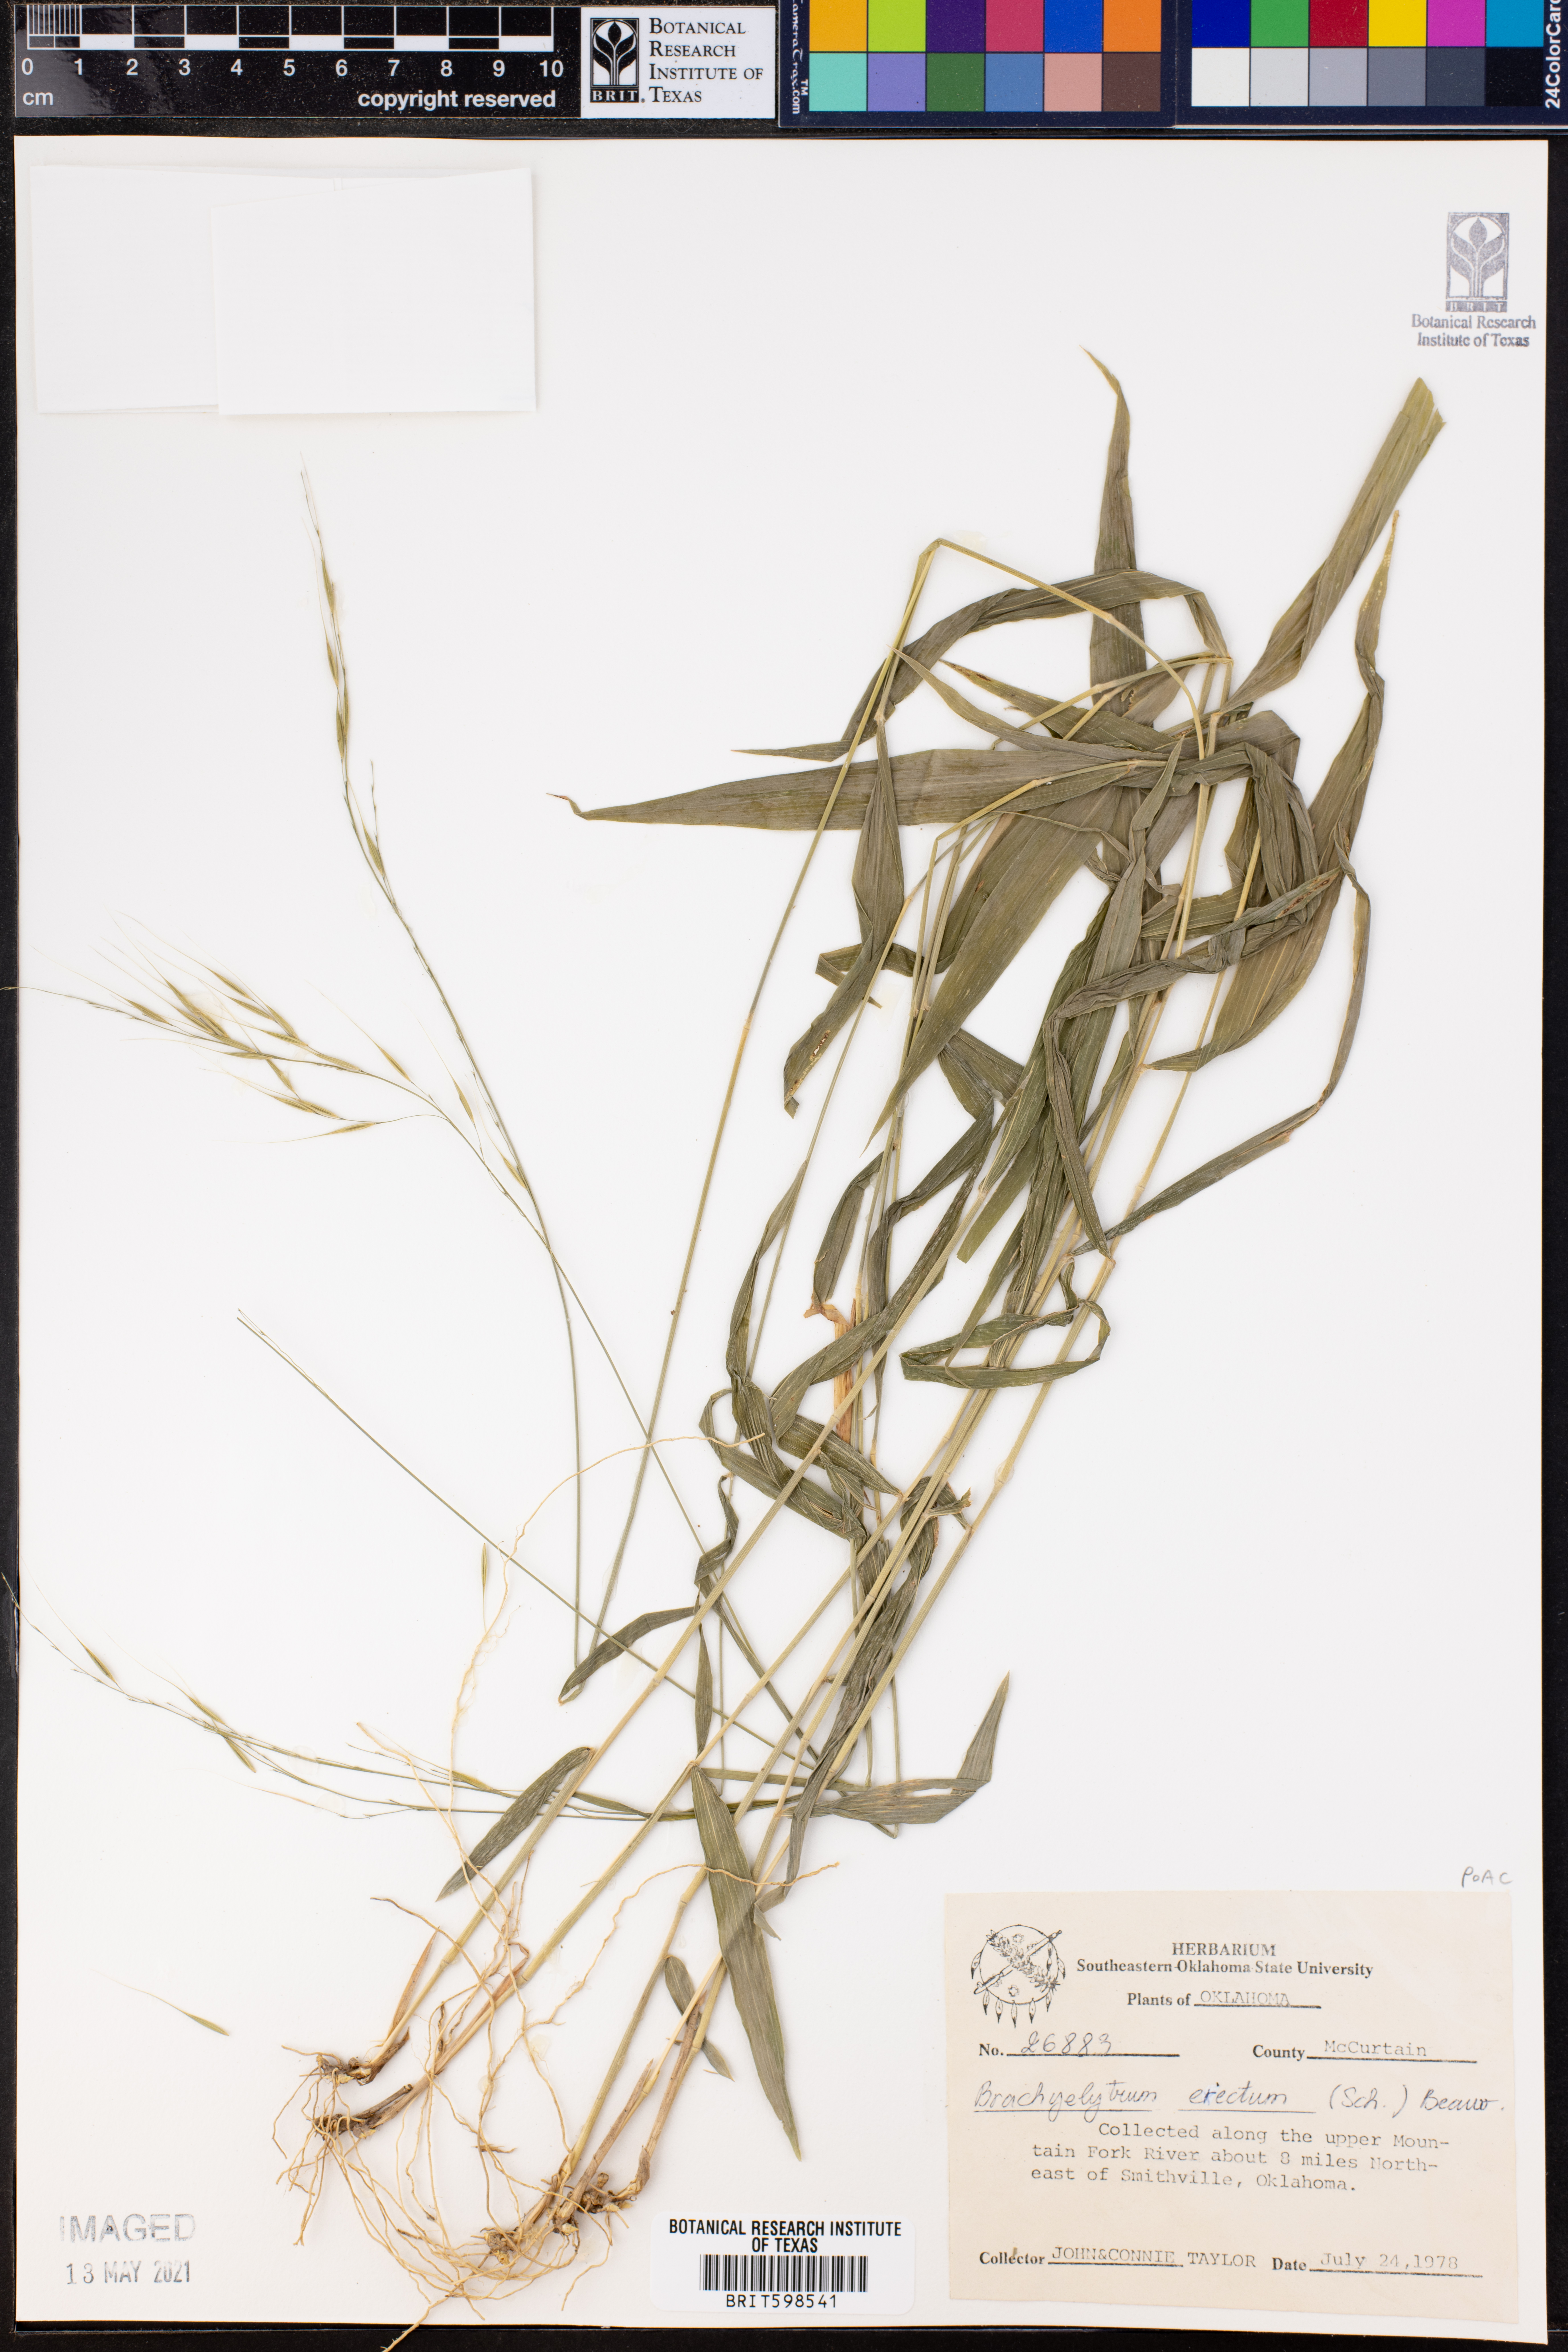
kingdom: Plantae
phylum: Tracheophyta
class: Liliopsida
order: Poales
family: Poaceae
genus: Brachyelytrum
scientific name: Brachyelytrum erectum
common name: Bearded shorthusk
